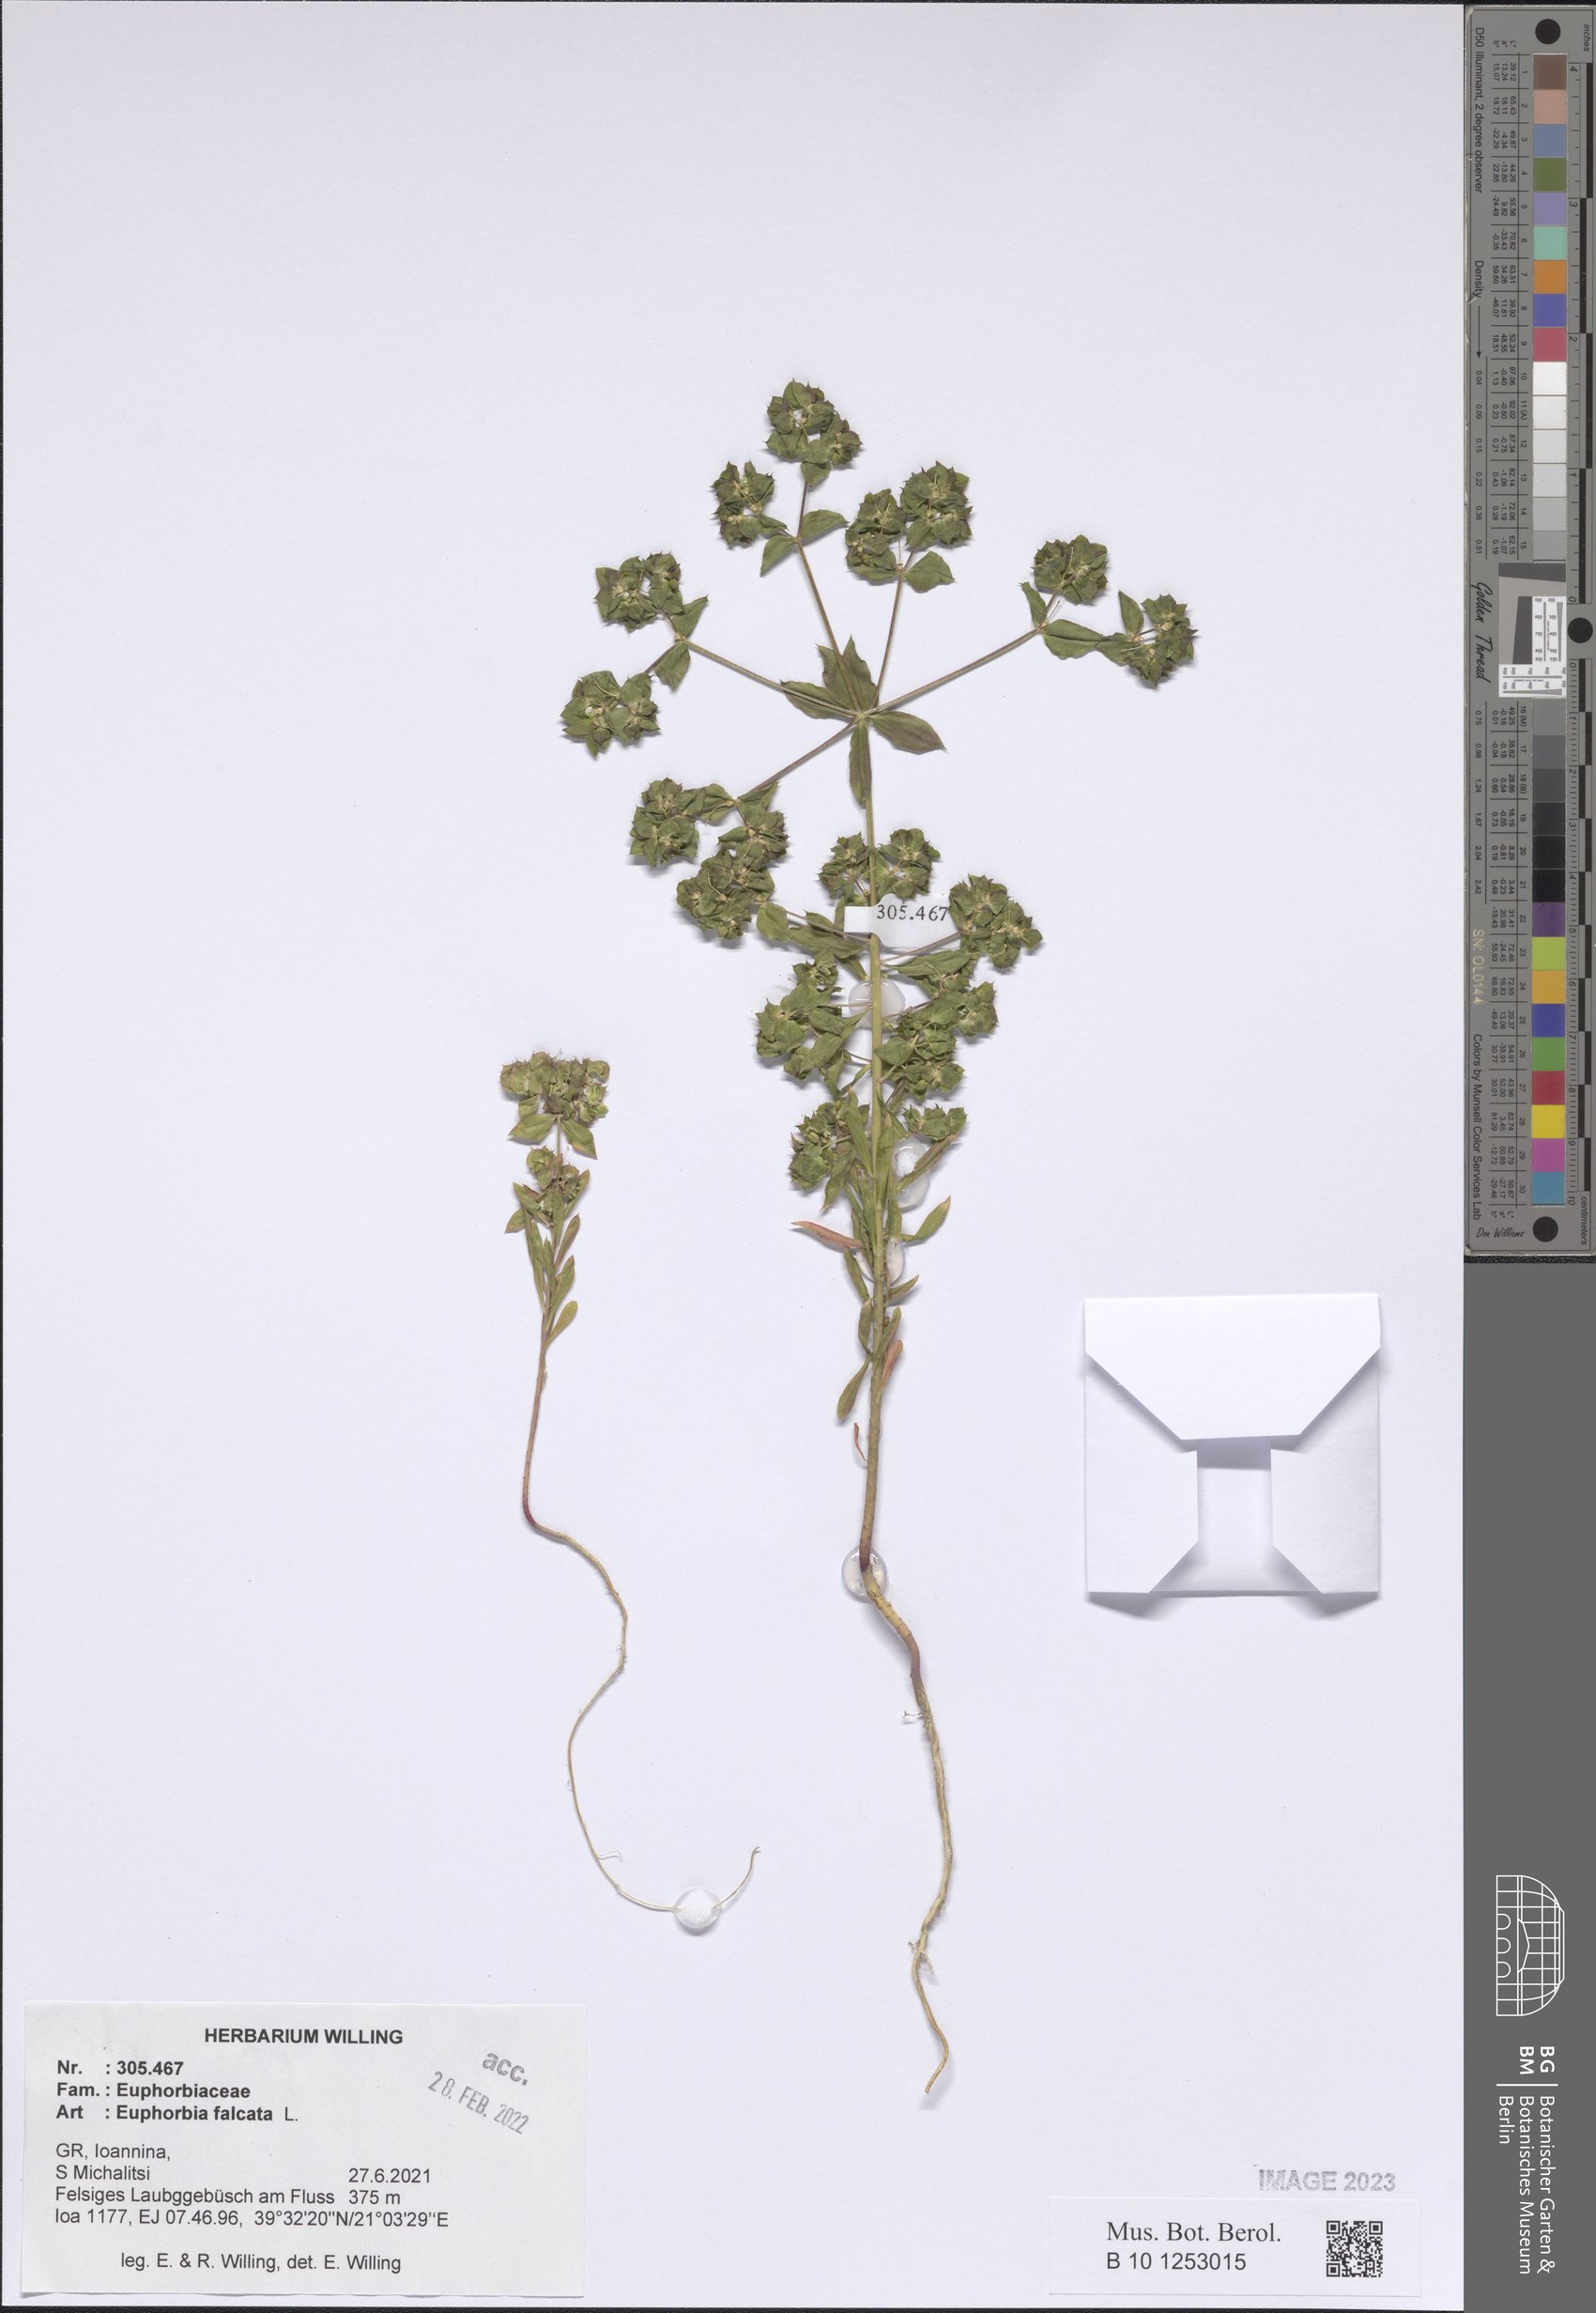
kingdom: Plantae
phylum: Tracheophyta
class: Magnoliopsida
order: Malpighiales
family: Euphorbiaceae
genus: Euphorbia
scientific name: Euphorbia falcata
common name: Sickle spurge
